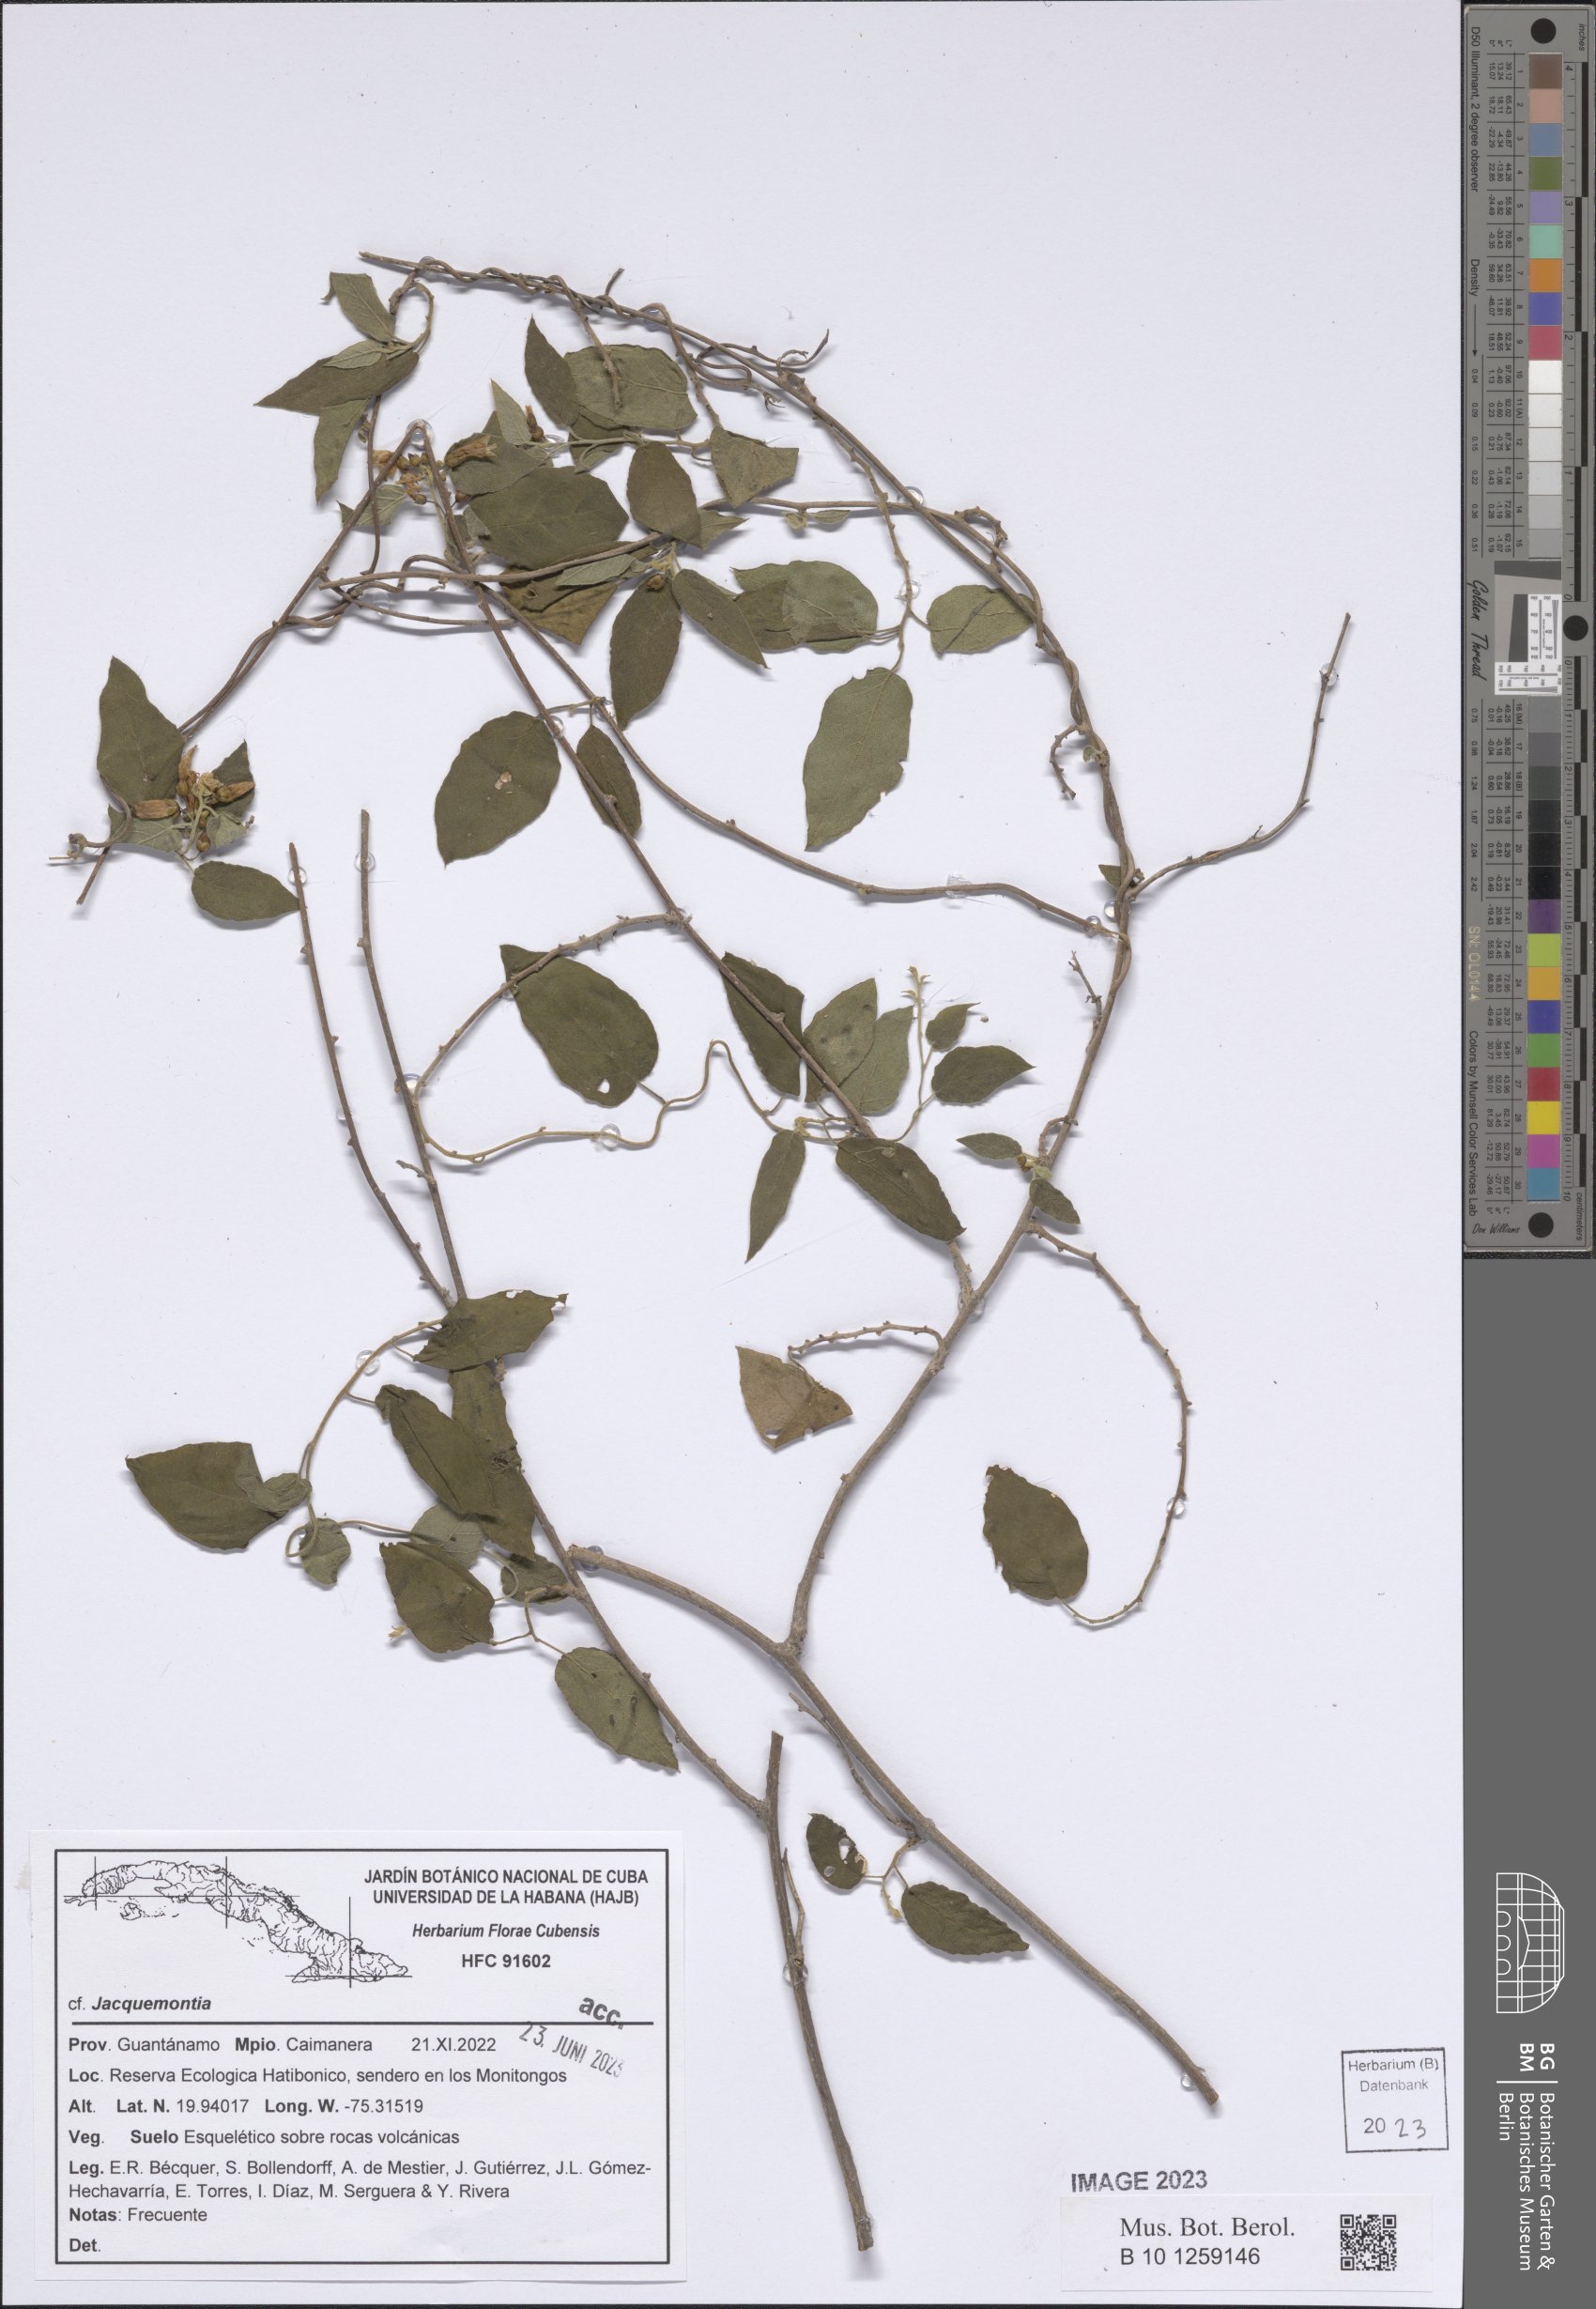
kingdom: Plantae
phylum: Tracheophyta
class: Magnoliopsida
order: Solanales
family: Convolvulaceae
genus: Jacquemontia
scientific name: Jacquemontia
